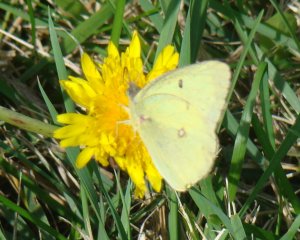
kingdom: Animalia
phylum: Arthropoda
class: Insecta
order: Lepidoptera
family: Pieridae
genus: Colias
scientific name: Colias philodice
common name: Clouded Sulphur
